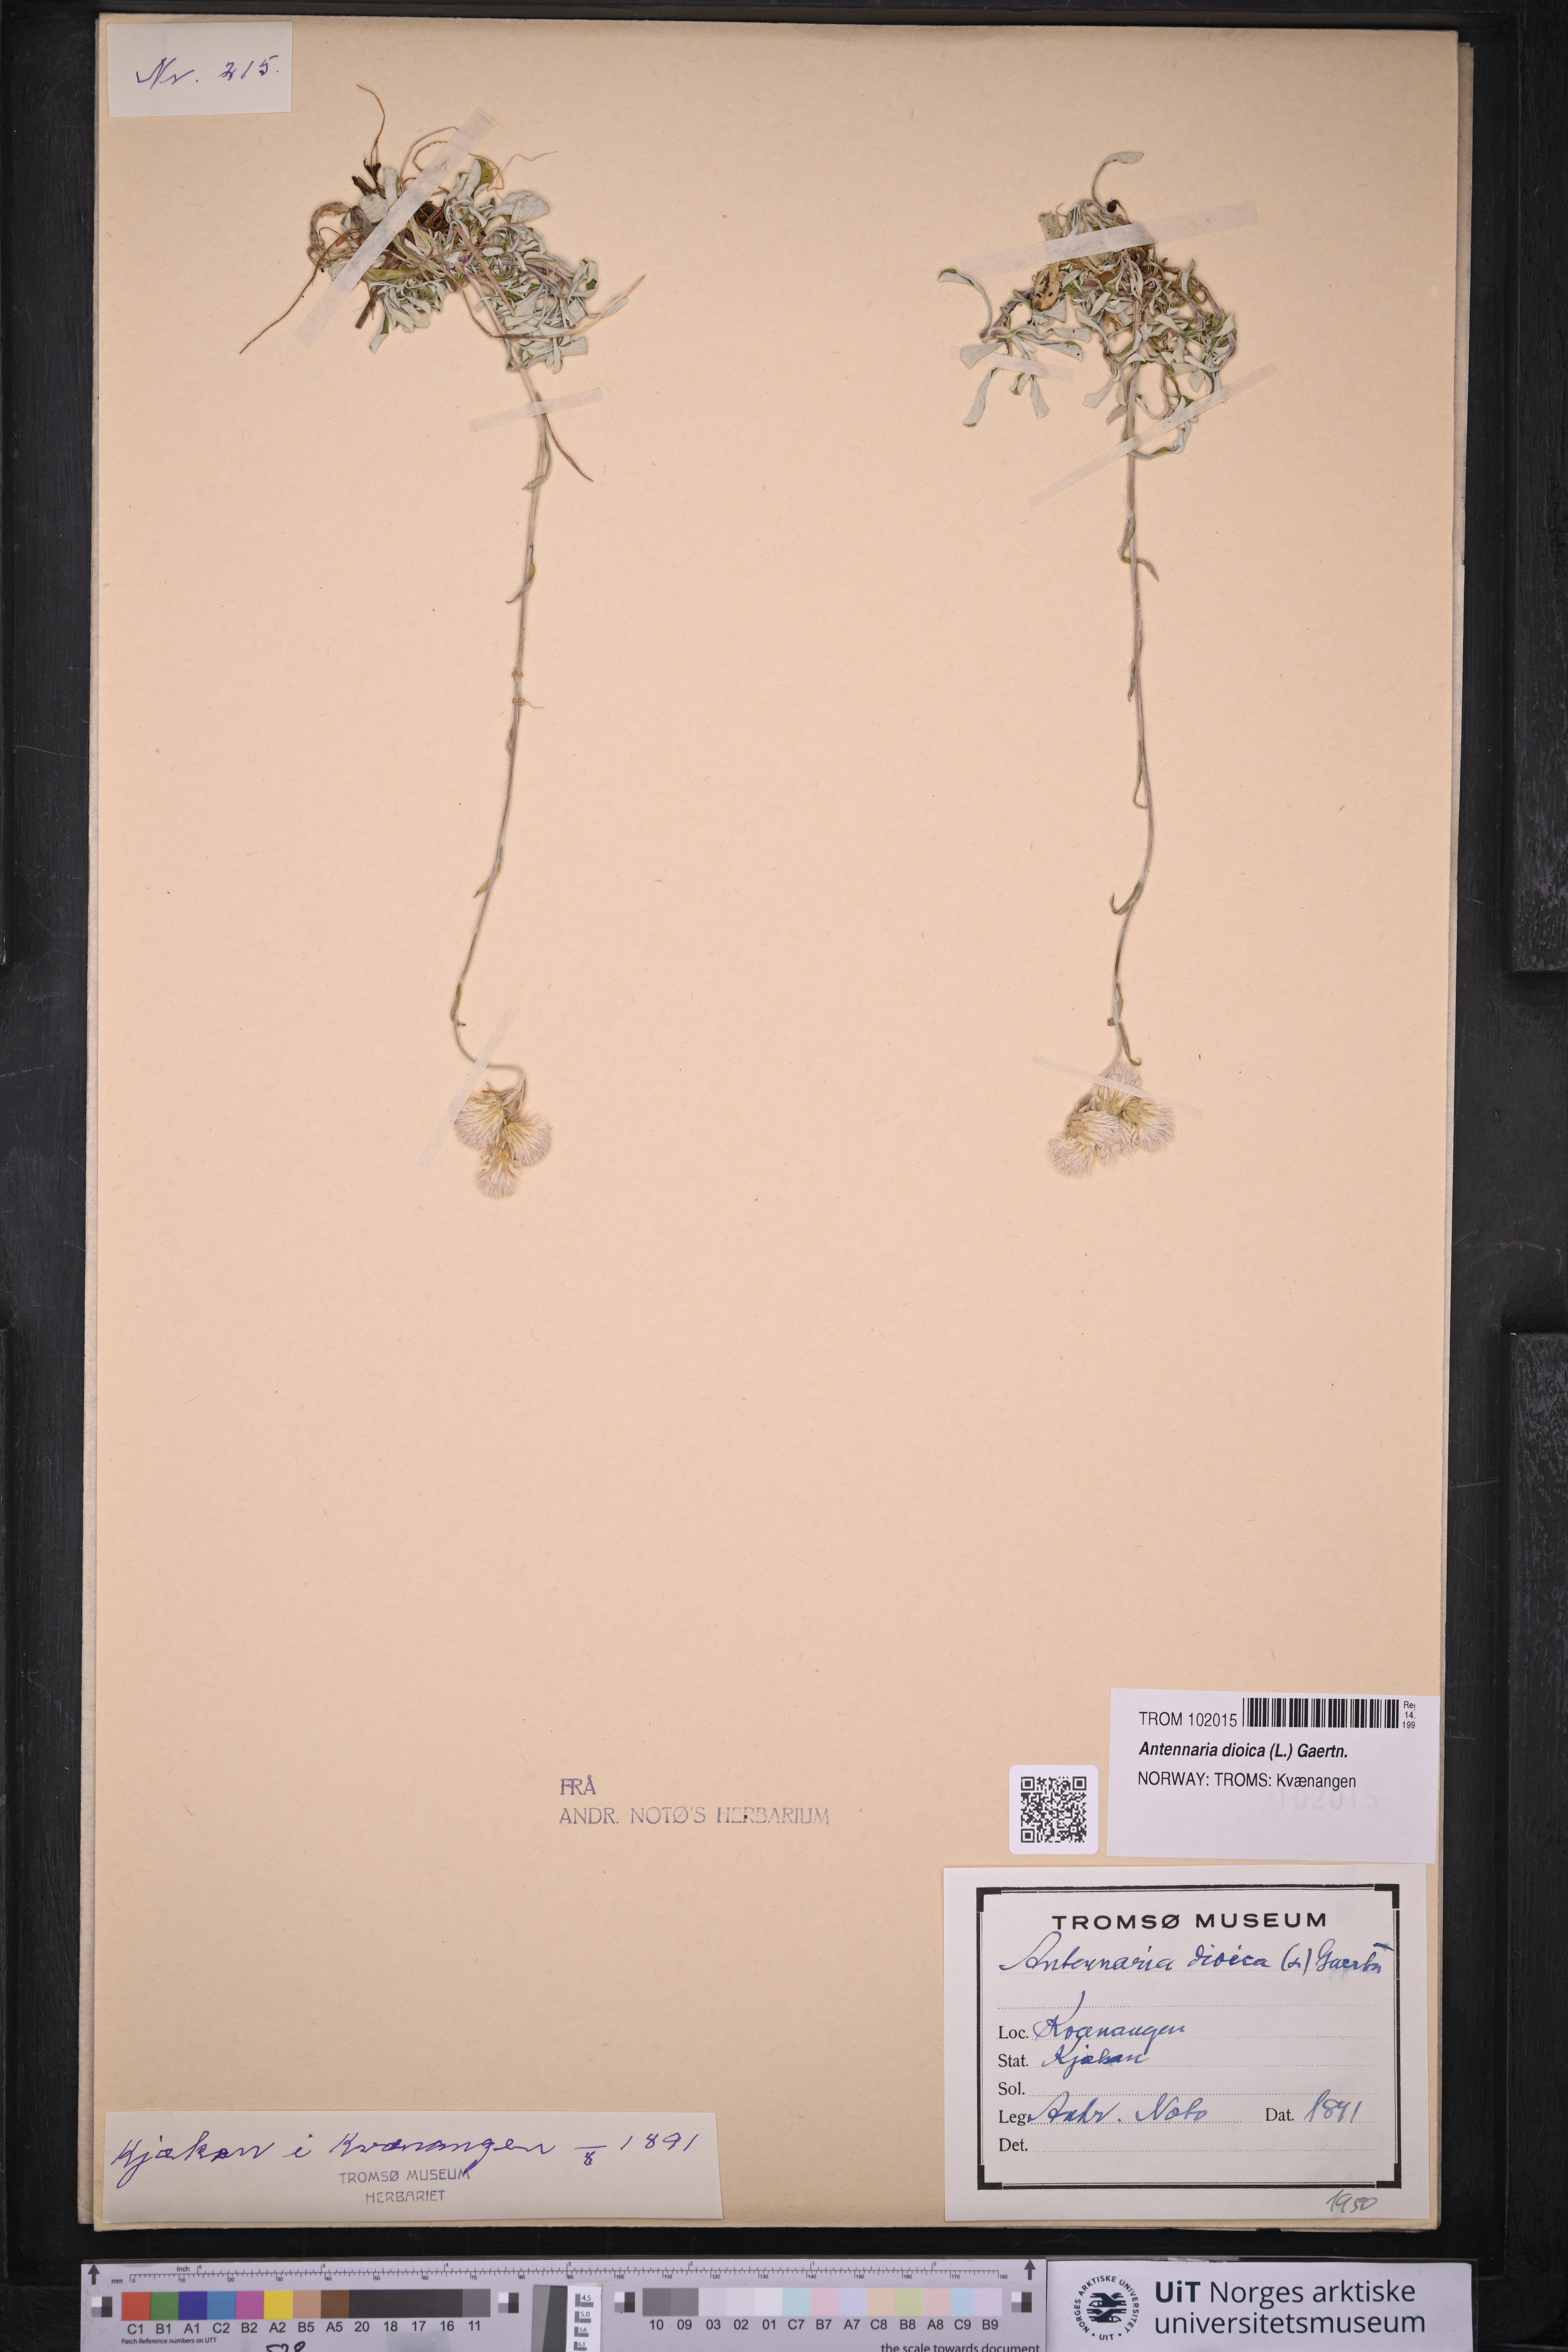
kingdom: Plantae
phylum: Tracheophyta
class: Magnoliopsida
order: Asterales
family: Asteraceae
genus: Antennaria
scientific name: Antennaria dioica
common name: Mountain everlasting
